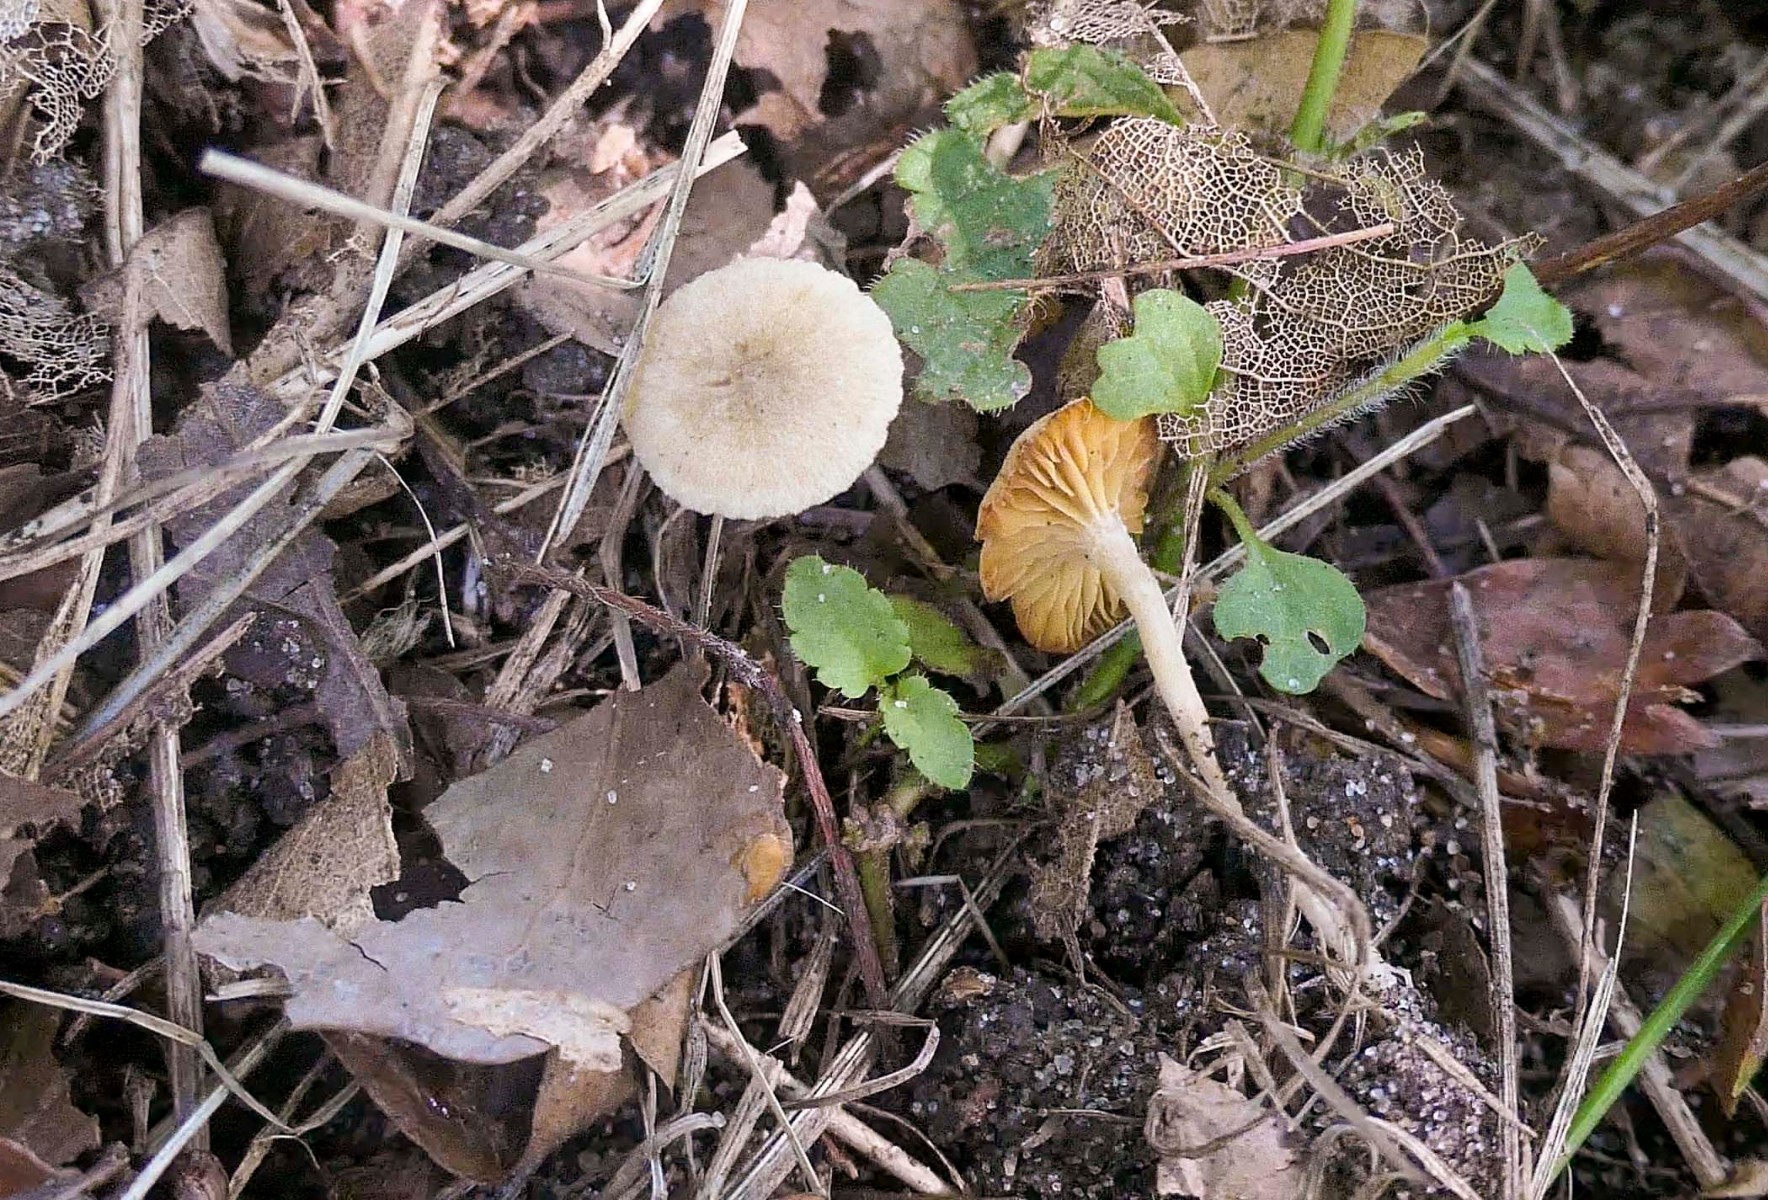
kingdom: Fungi
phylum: Basidiomycota
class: Agaricomycetes
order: Agaricales
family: Tubariaceae
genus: Tubaria
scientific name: Tubaria dispersa
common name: tjørne-fnughat
